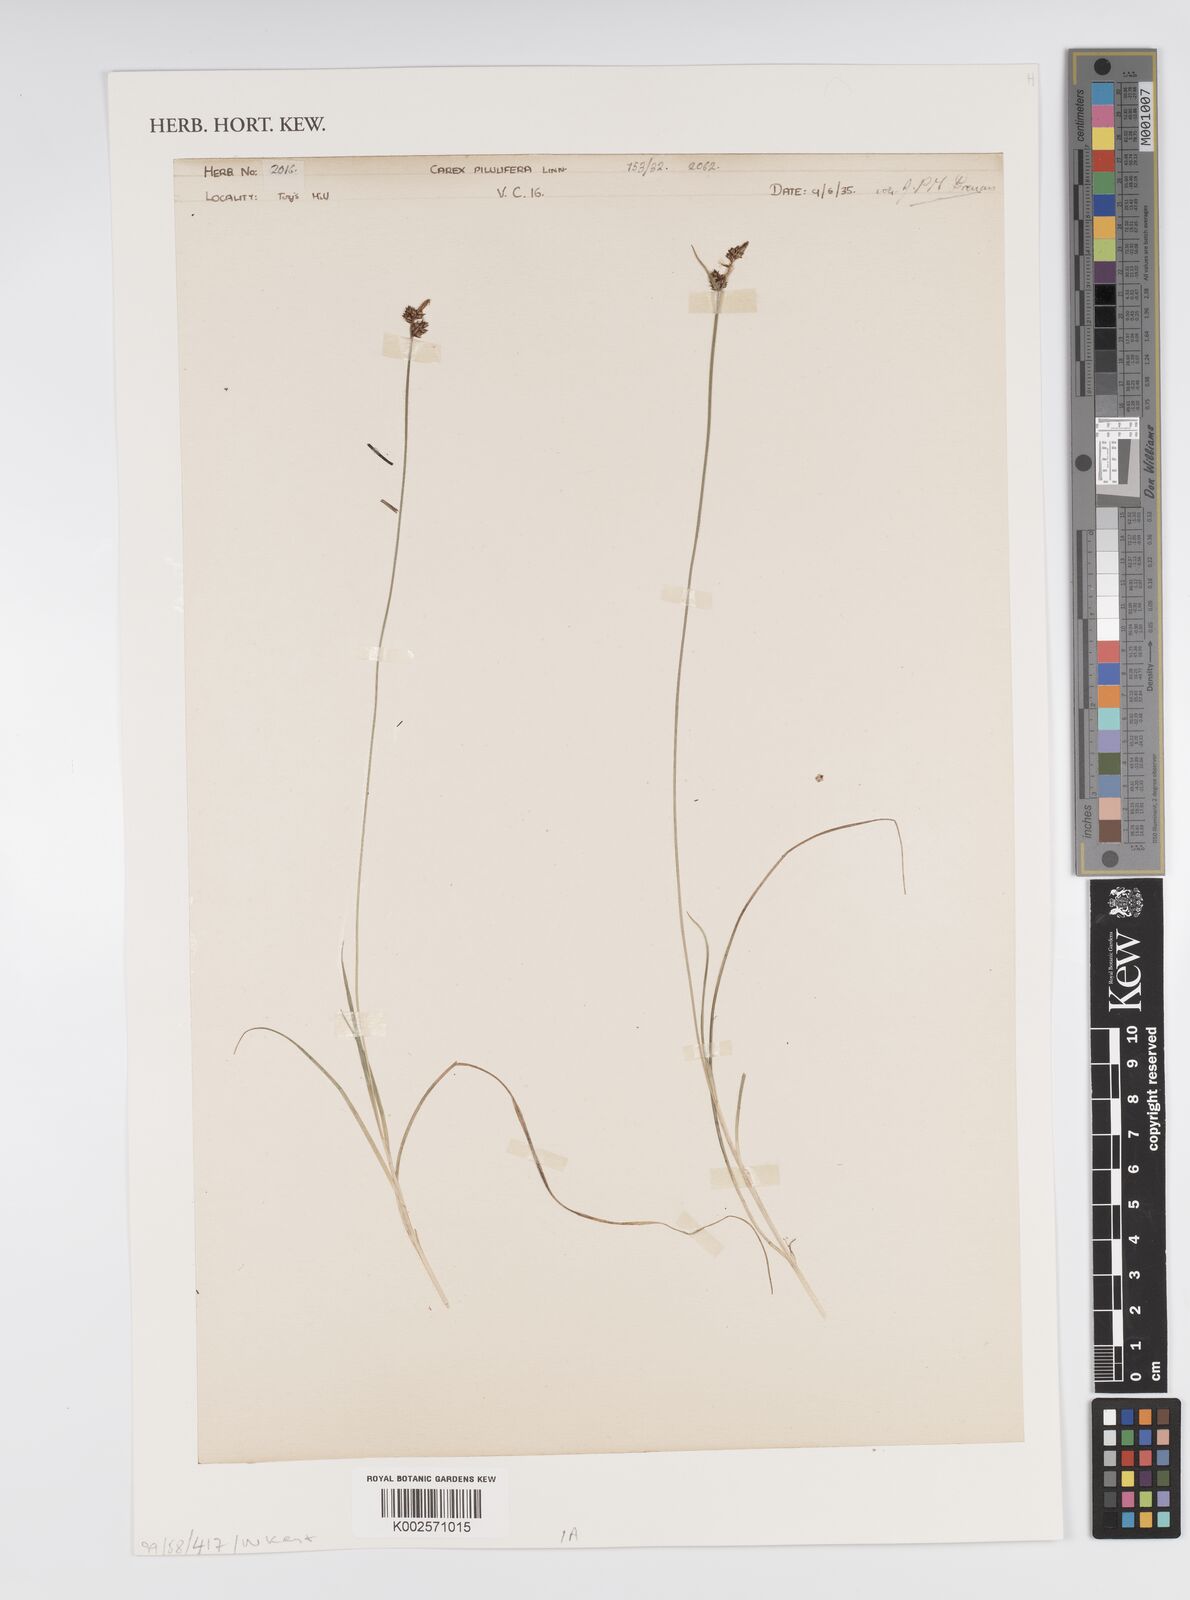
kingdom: Plantae
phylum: Tracheophyta
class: Liliopsida
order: Poales
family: Cyperaceae
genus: Carex
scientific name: Carex praecox
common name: Early sedge
